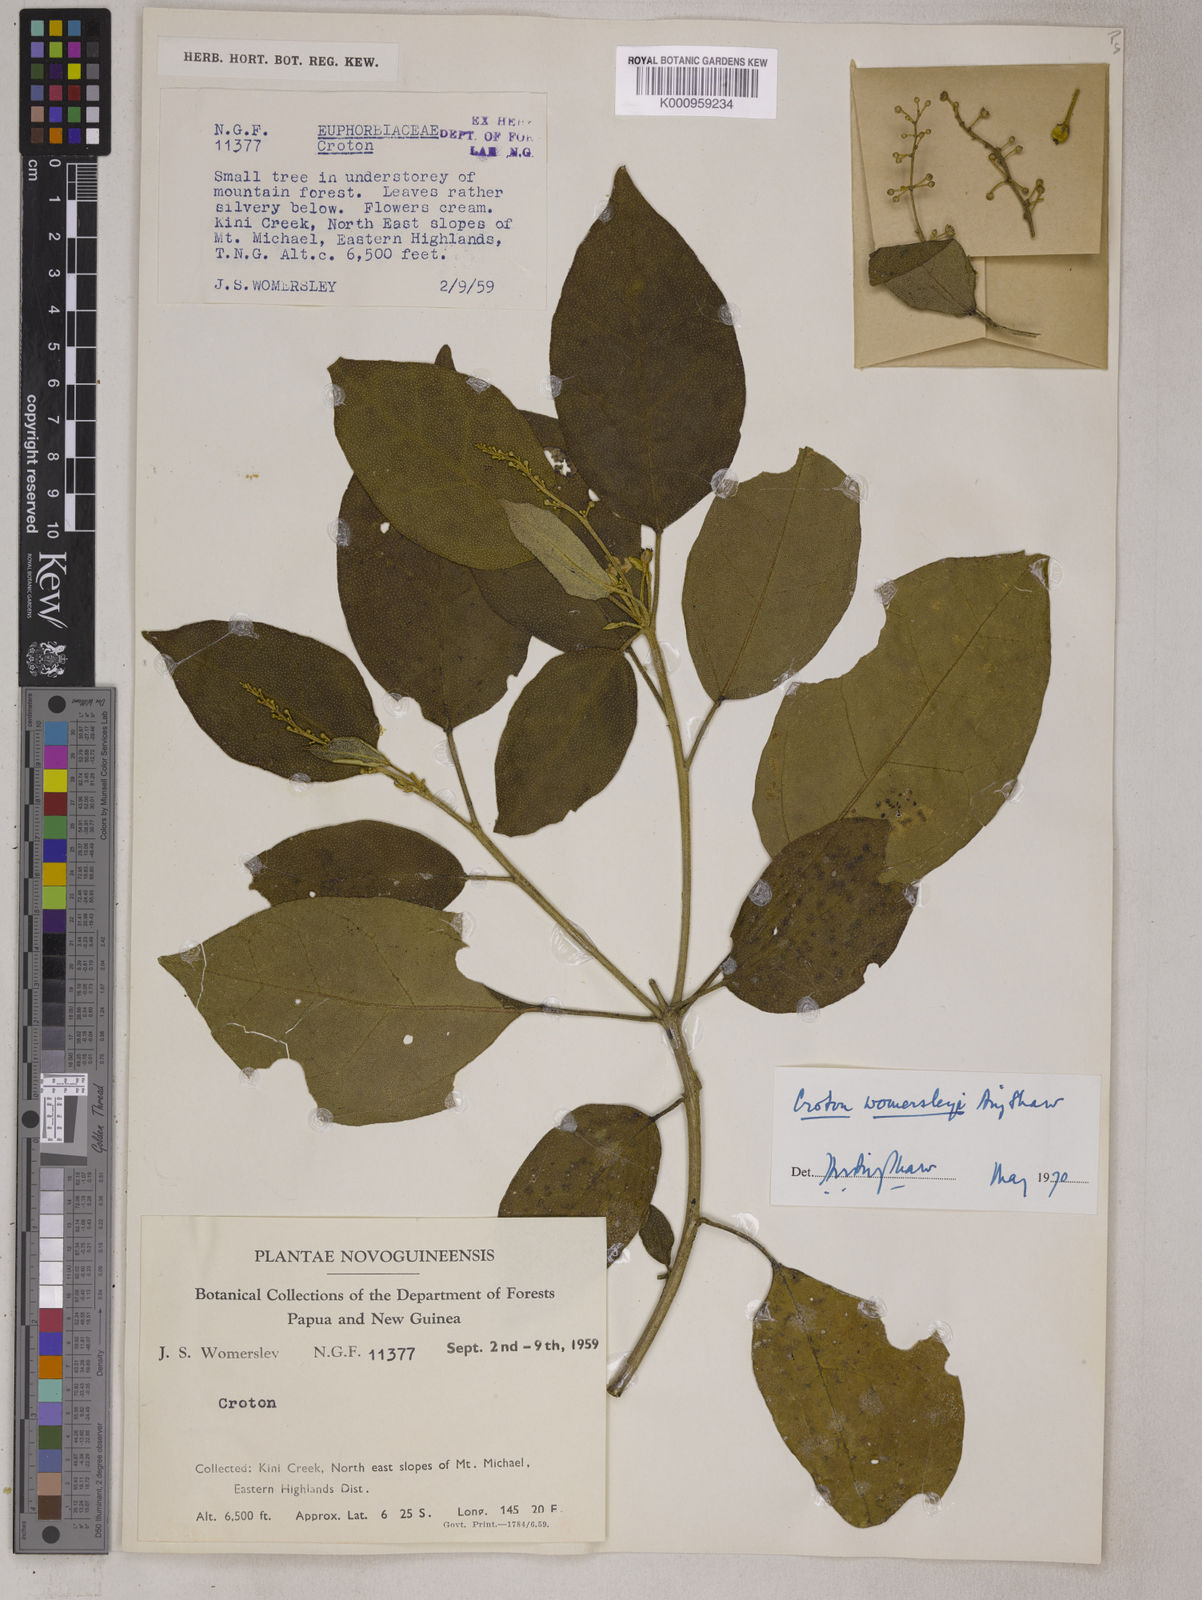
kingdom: Plantae
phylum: Tracheophyta
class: Magnoliopsida
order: Malpighiales
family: Euphorbiaceae
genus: Croton
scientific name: Croton womersleyi
